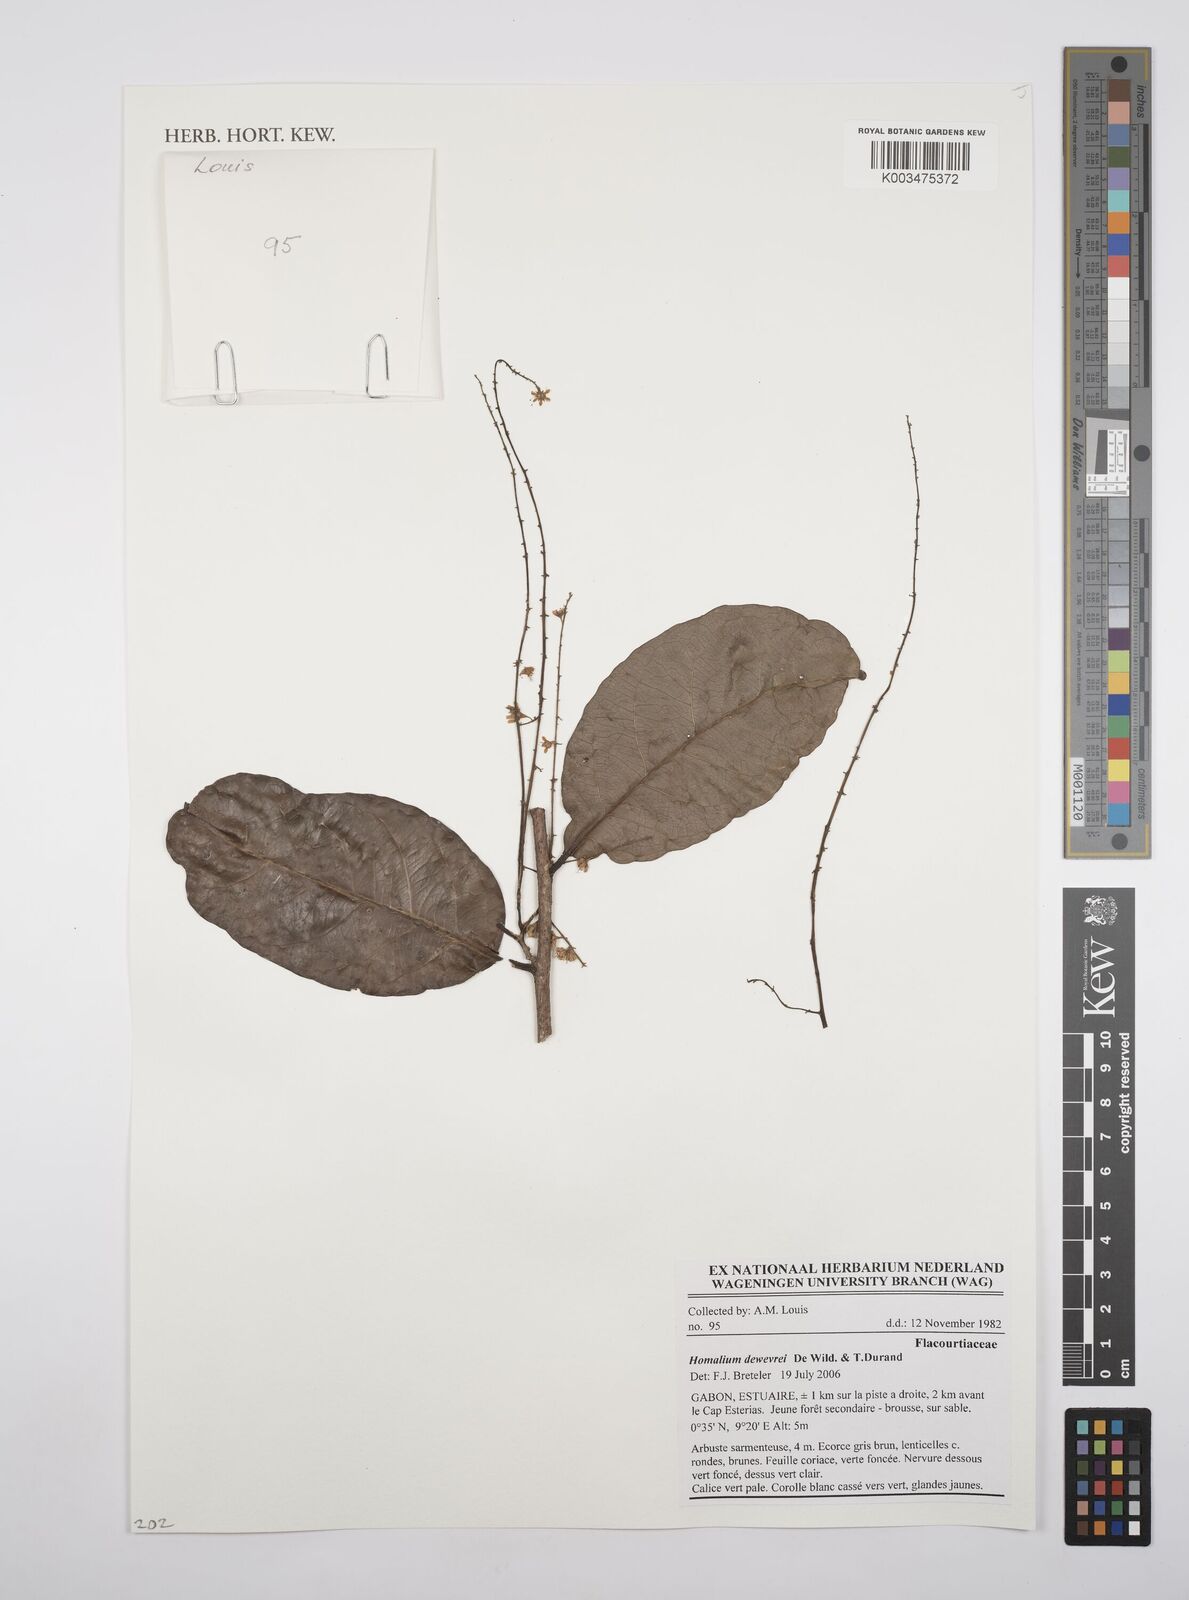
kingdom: Plantae
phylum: Tracheophyta
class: Magnoliopsida
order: Malpighiales
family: Salicaceae
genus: Homalium
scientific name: Homalium dewevrei
